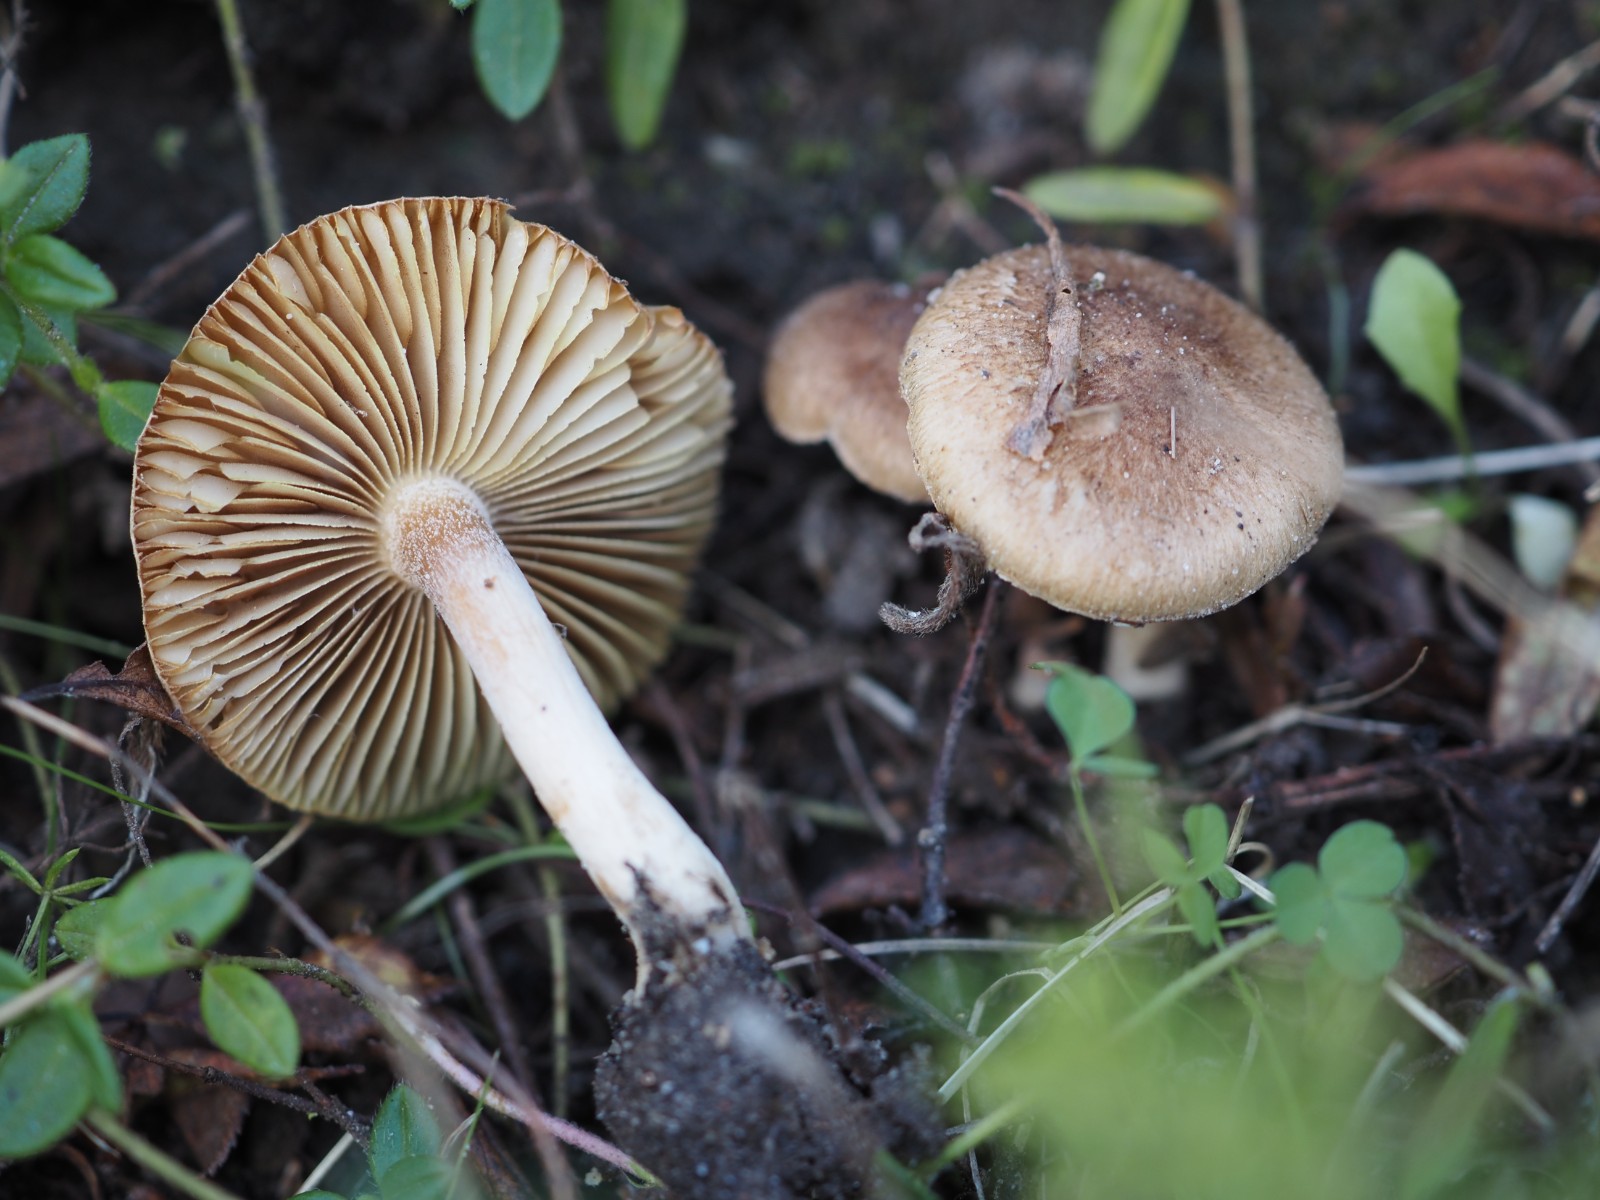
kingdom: Fungi
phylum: Basidiomycota
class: Agaricomycetes
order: Agaricales
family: Inocybaceae
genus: Inocybe
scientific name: Inocybe
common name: trævlhat
